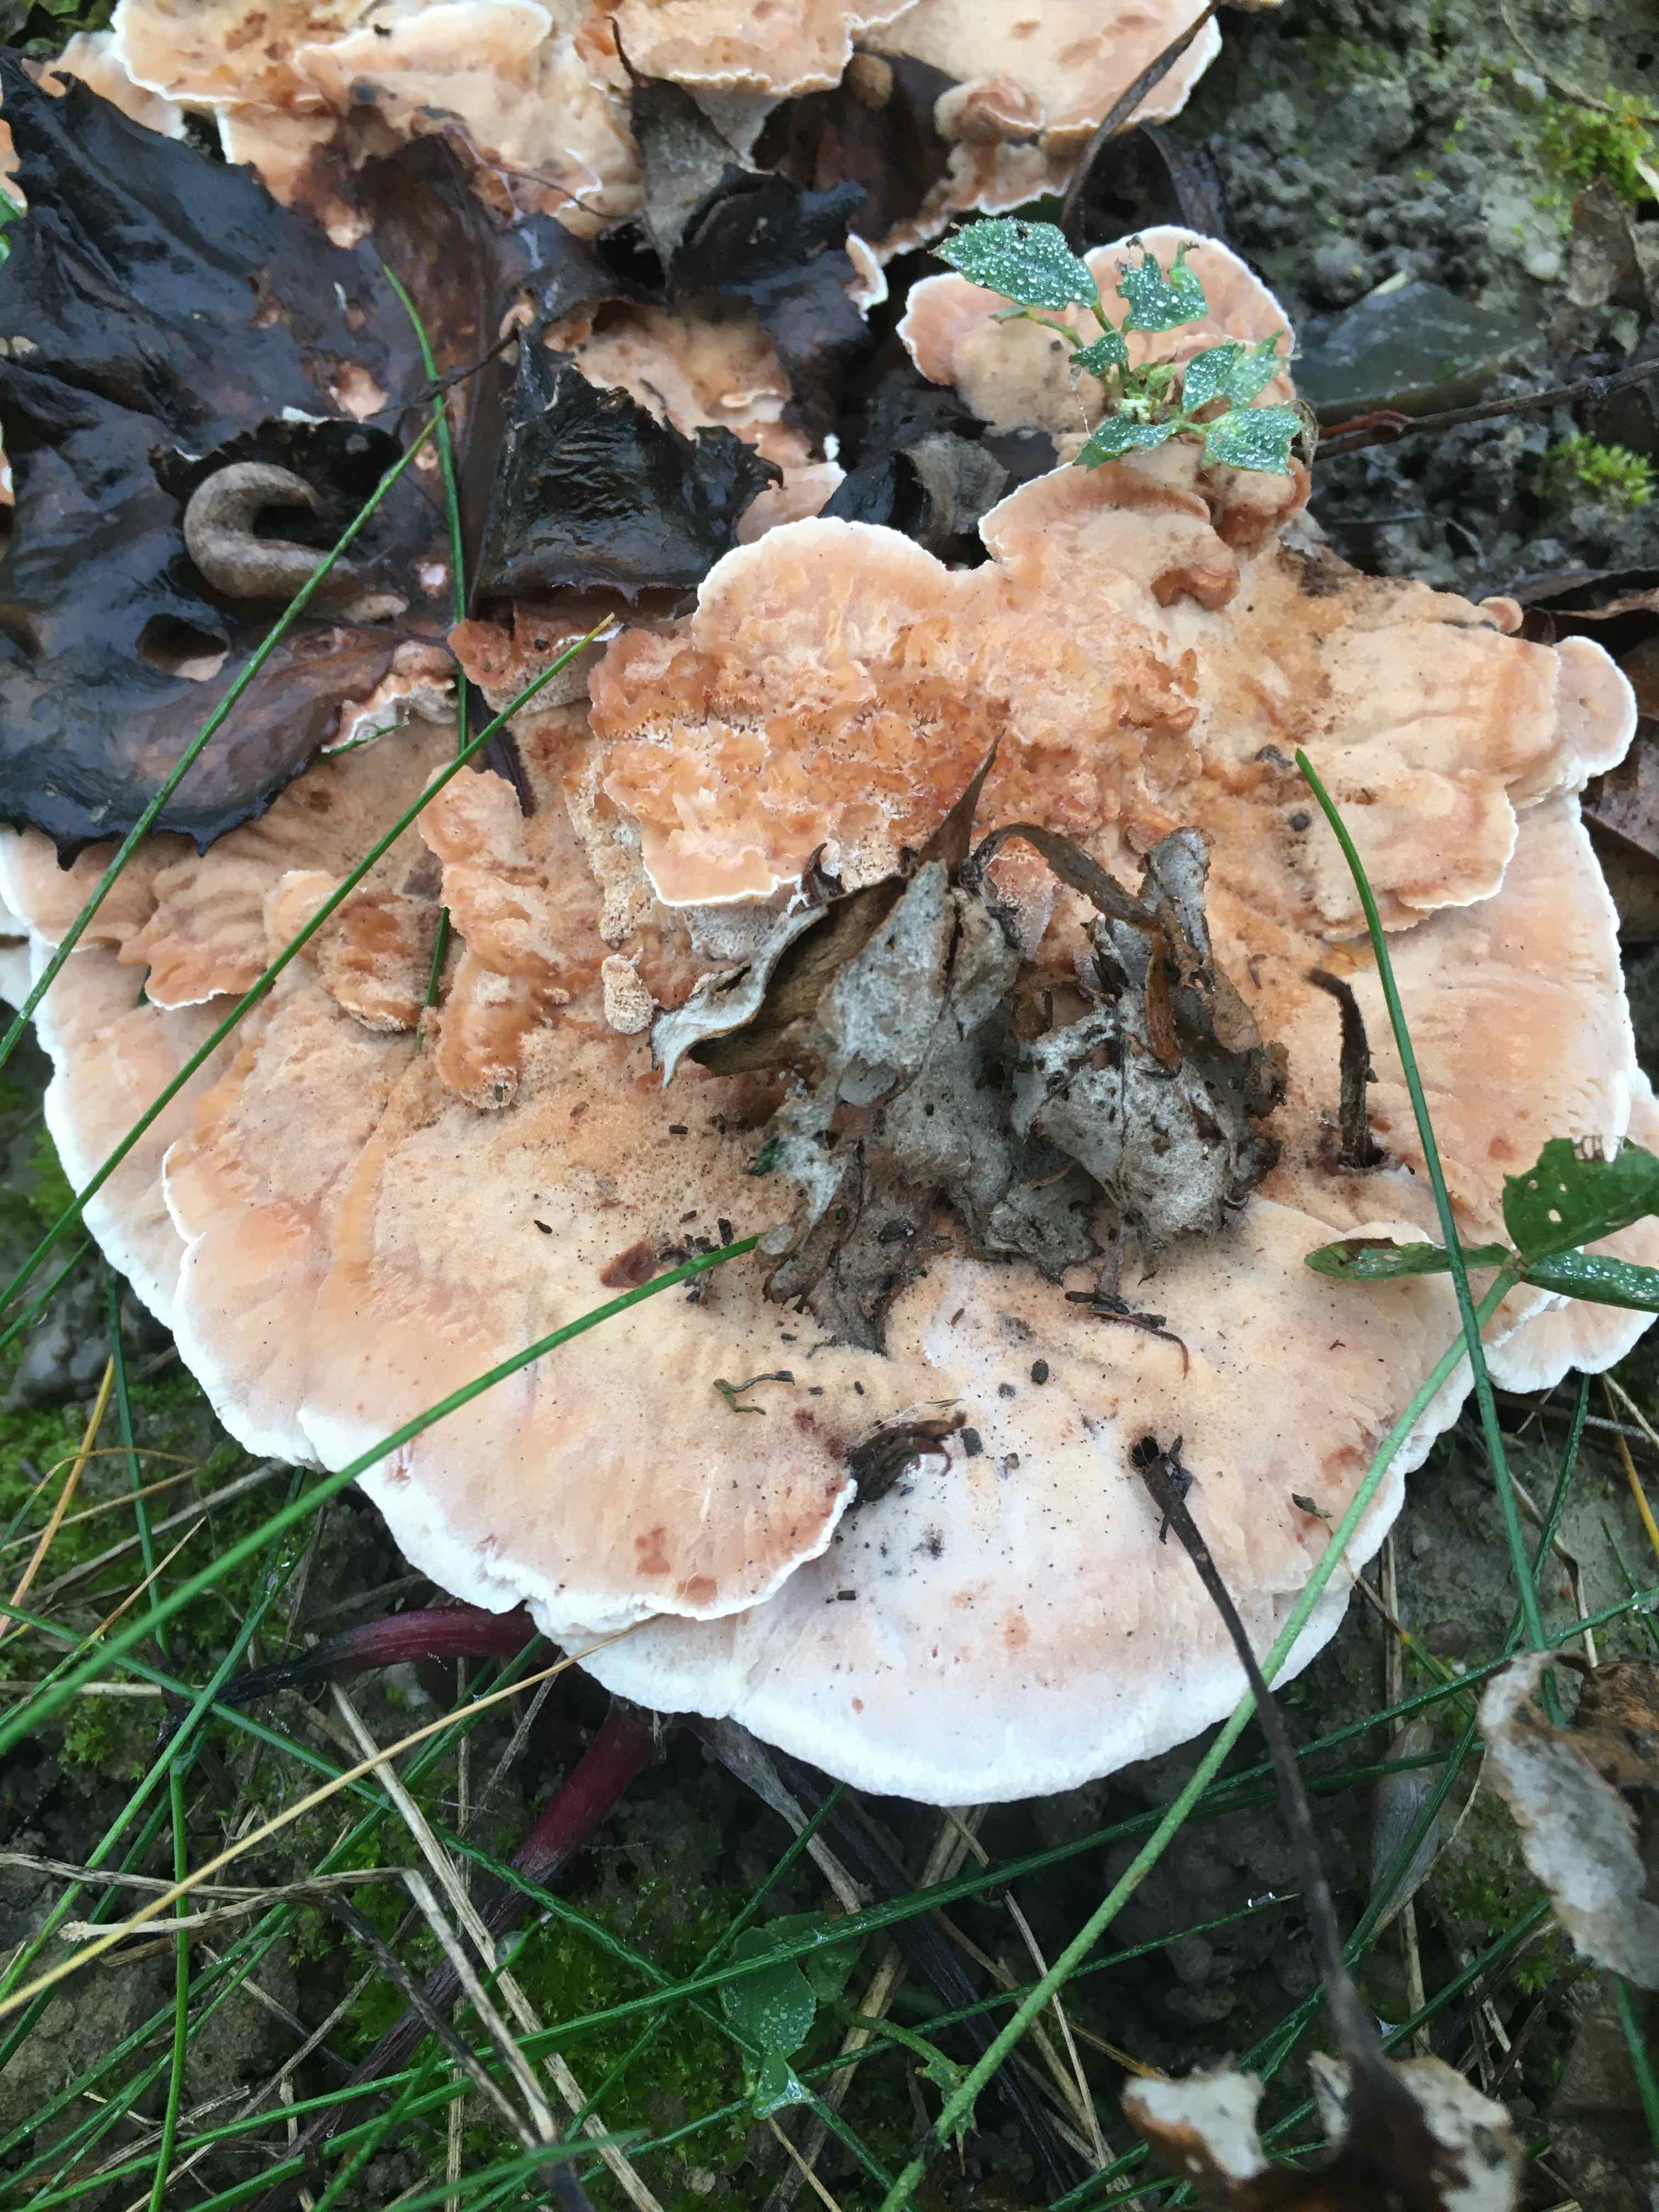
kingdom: Fungi
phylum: Basidiomycota
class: Agaricomycetes
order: Polyporales
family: Podoscyphaceae
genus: Abortiporus
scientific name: Abortiporus biennis
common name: rødmende pjalteporesvamp
